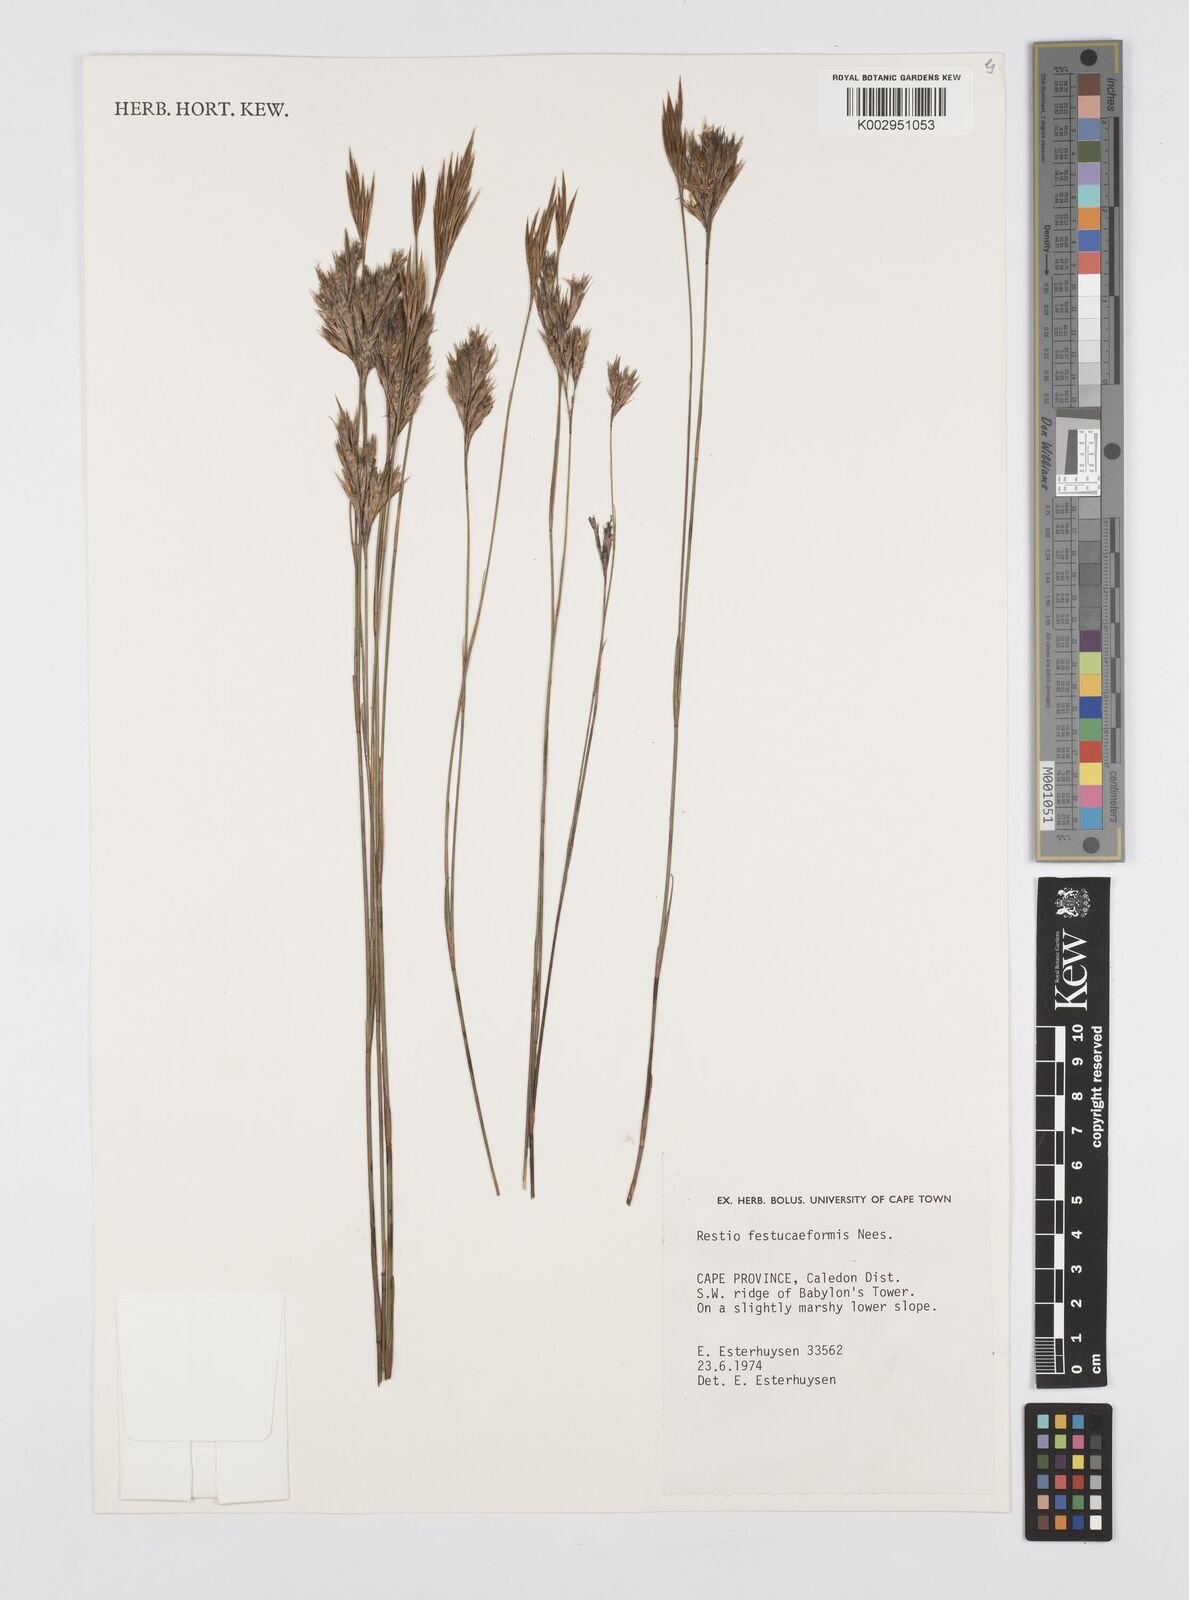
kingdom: Plantae
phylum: Tracheophyta
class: Liliopsida
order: Poales
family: Restionaceae
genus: Restio
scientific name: Restio festuciformis
